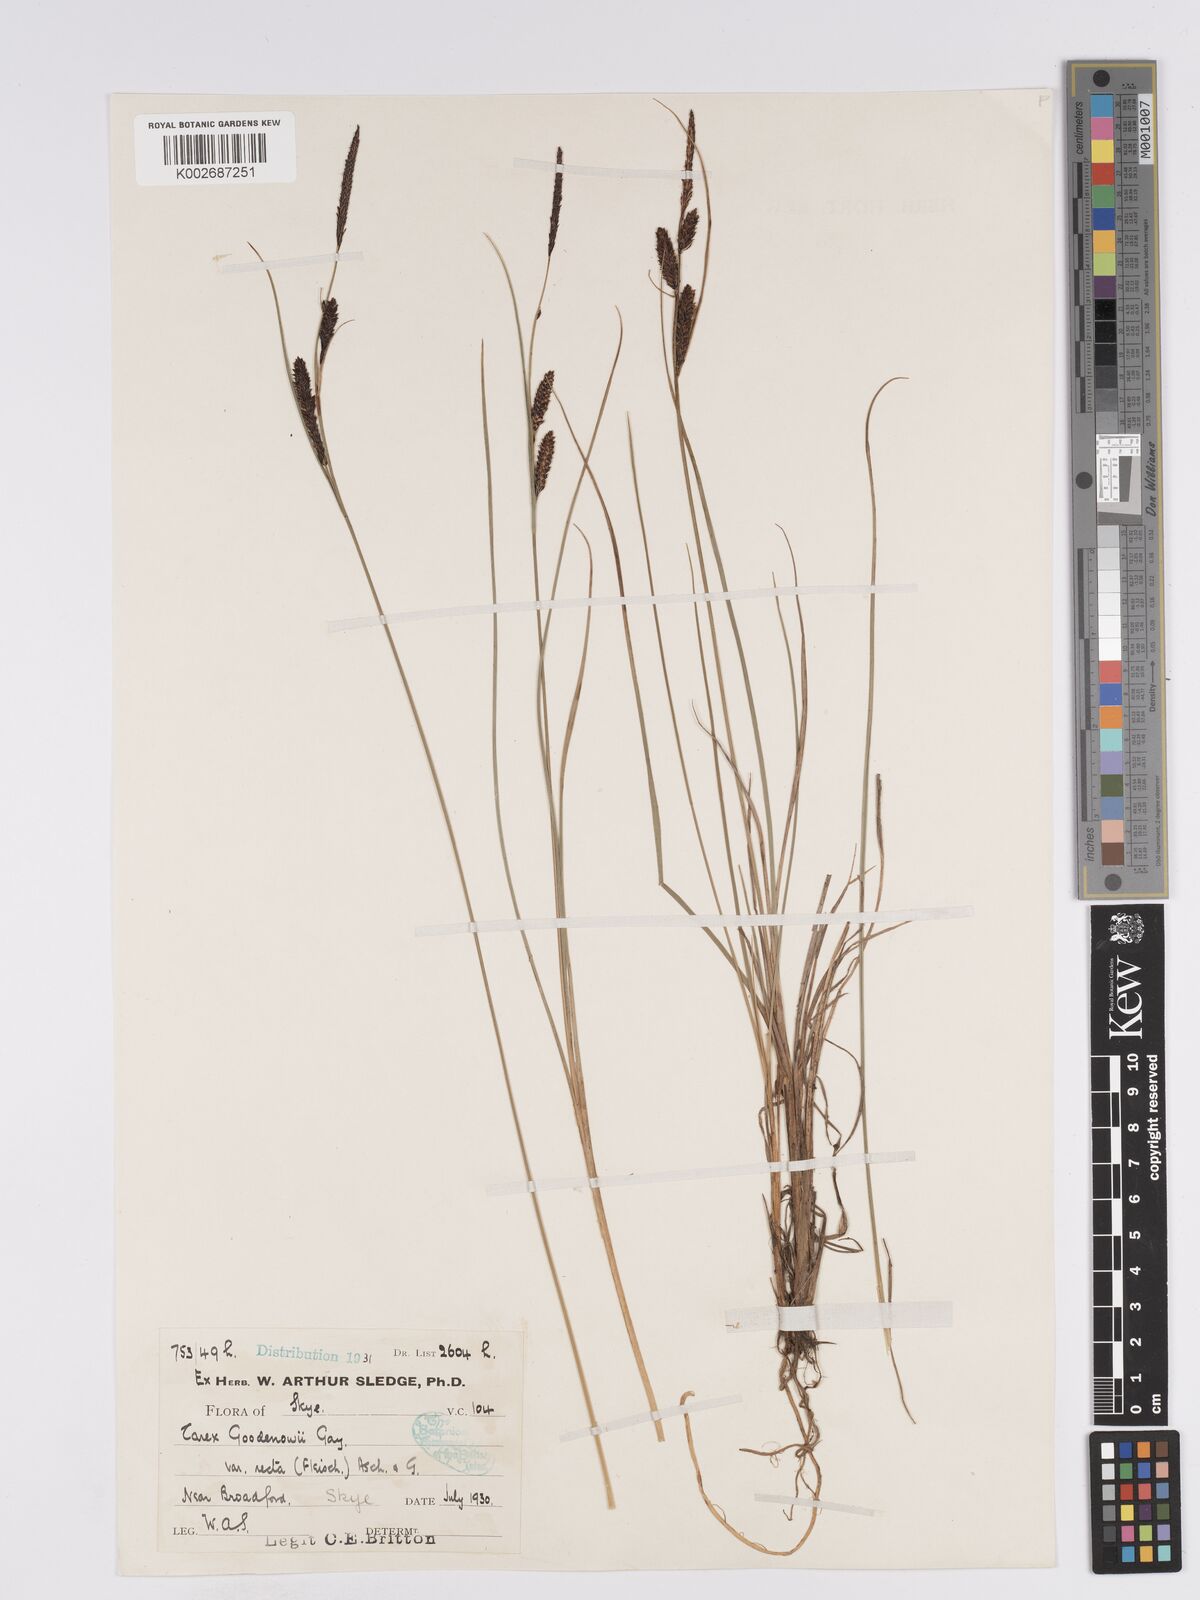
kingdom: Plantae
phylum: Tracheophyta
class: Liliopsida
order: Poales
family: Cyperaceae
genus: Carex
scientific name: Carex nigra
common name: Common sedge
